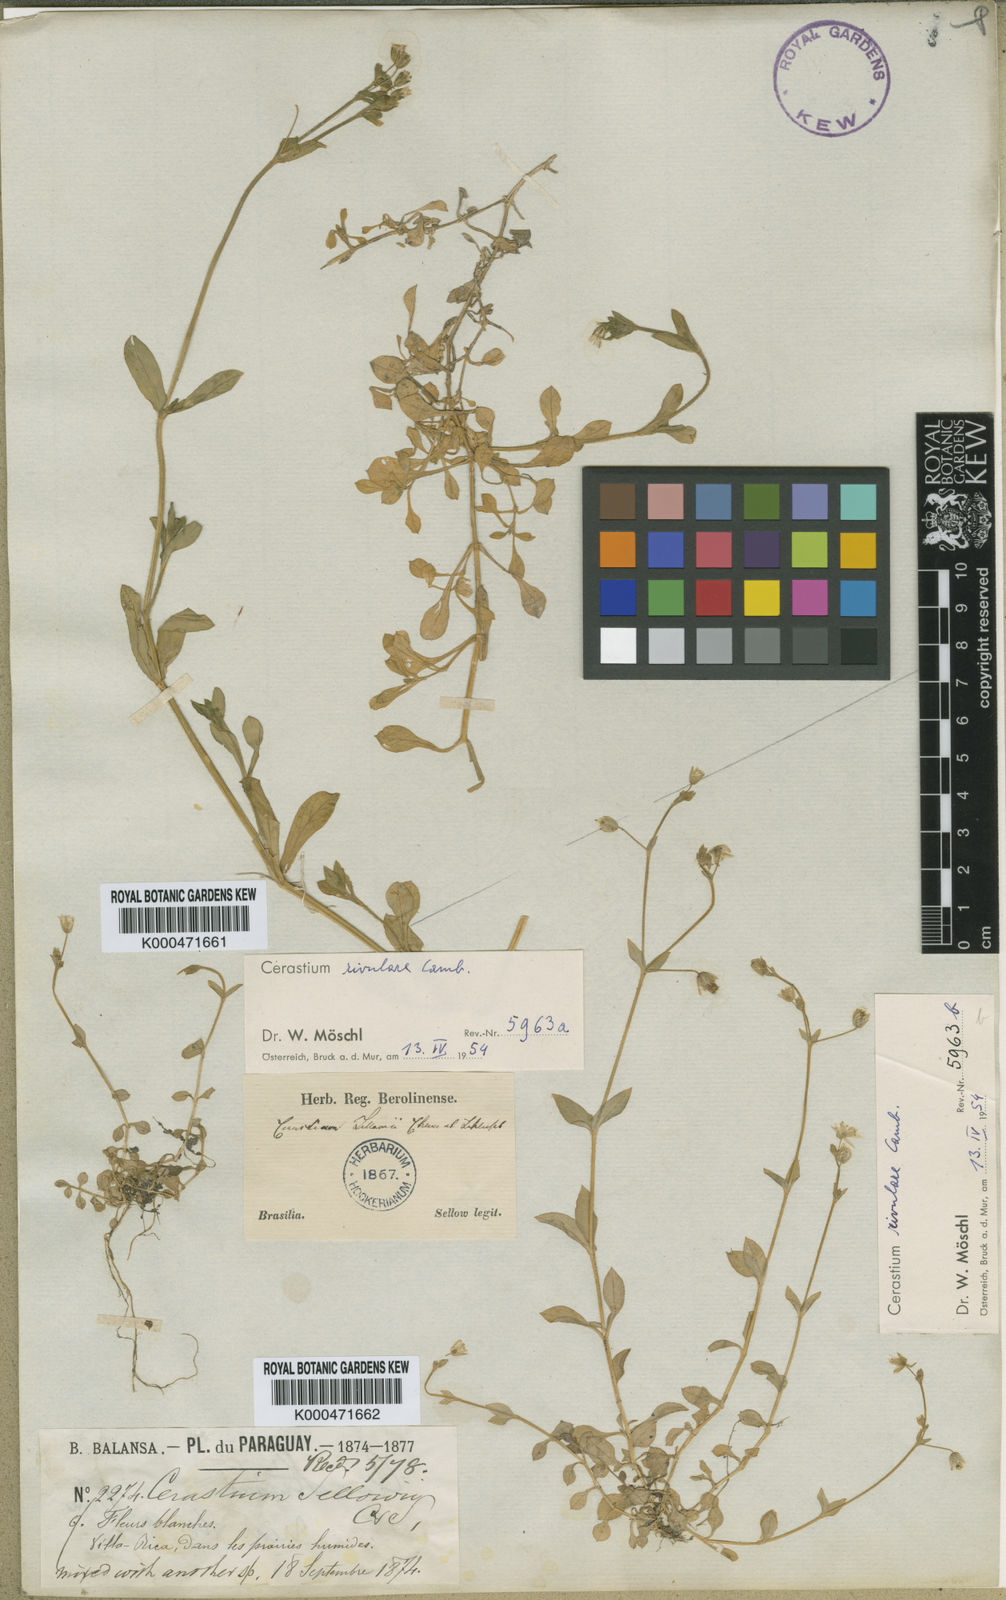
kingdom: Plantae
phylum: Tracheophyta
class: Magnoliopsida
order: Caryophyllales
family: Caryophyllaceae
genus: Cerastium
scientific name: Cerastium rivulare
